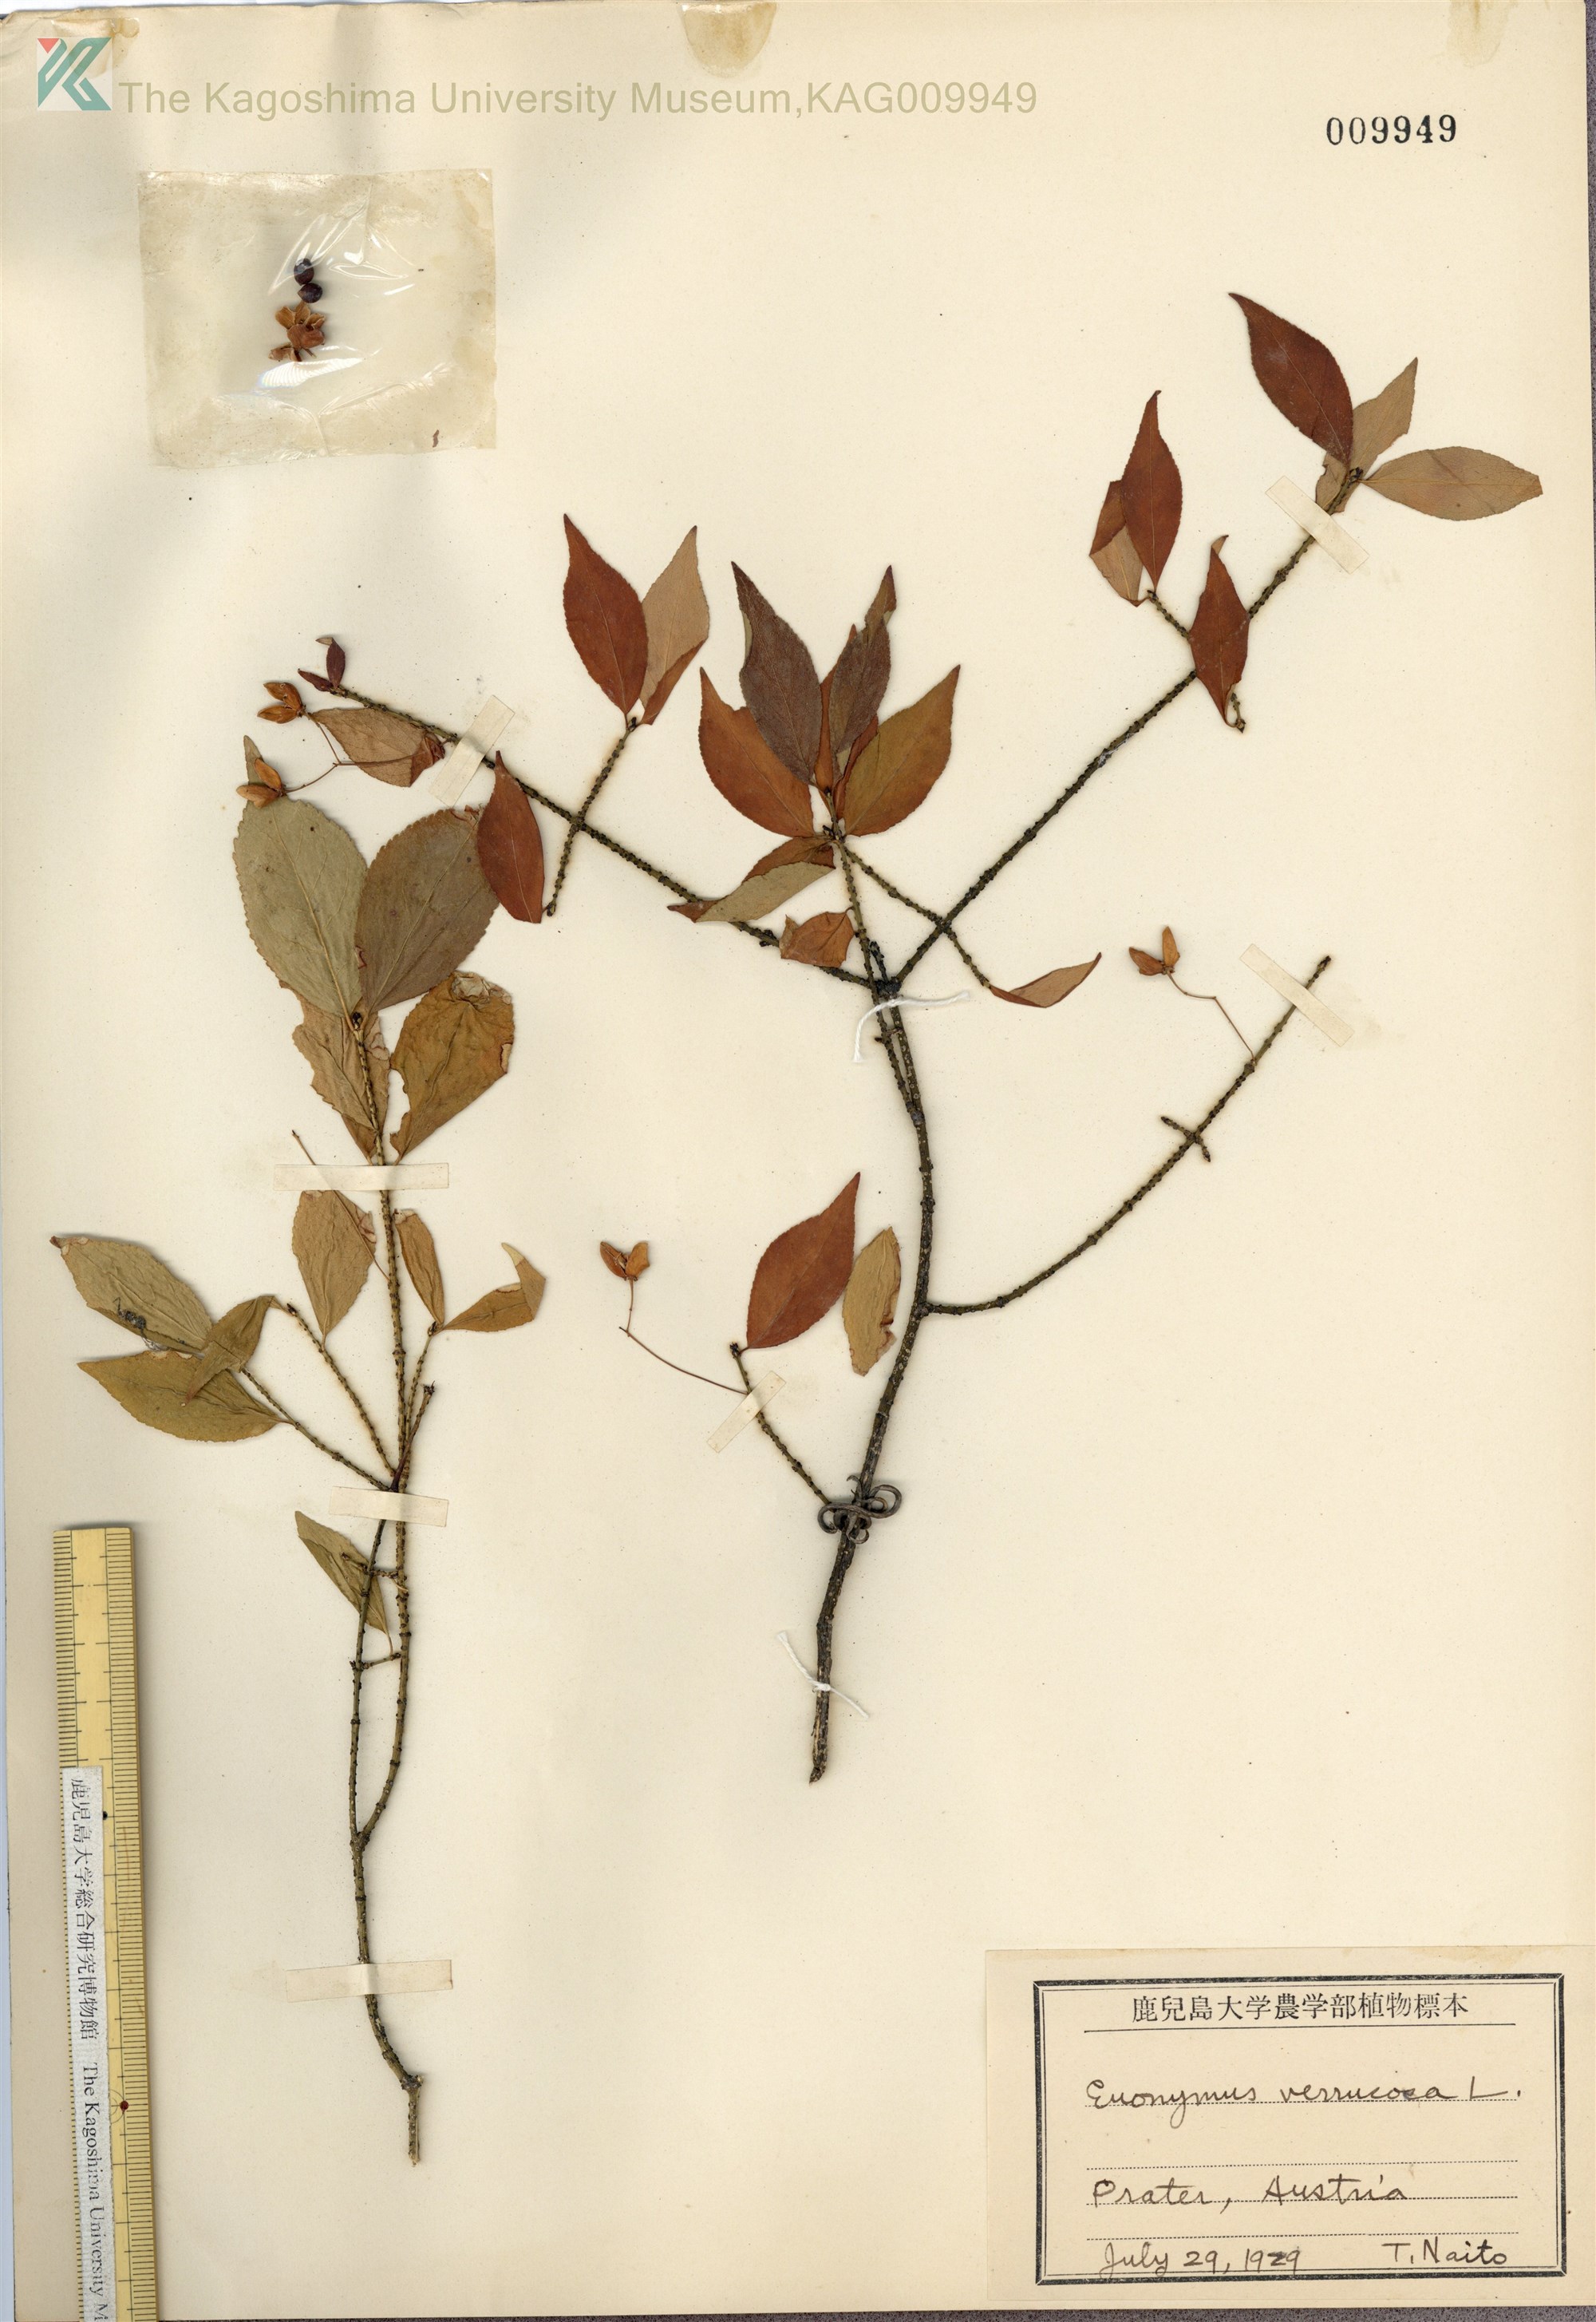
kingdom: Plantae
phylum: Tracheophyta
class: Magnoliopsida
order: Celastrales
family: Celastraceae
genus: Euonymus
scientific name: Euonymus verrucosus
